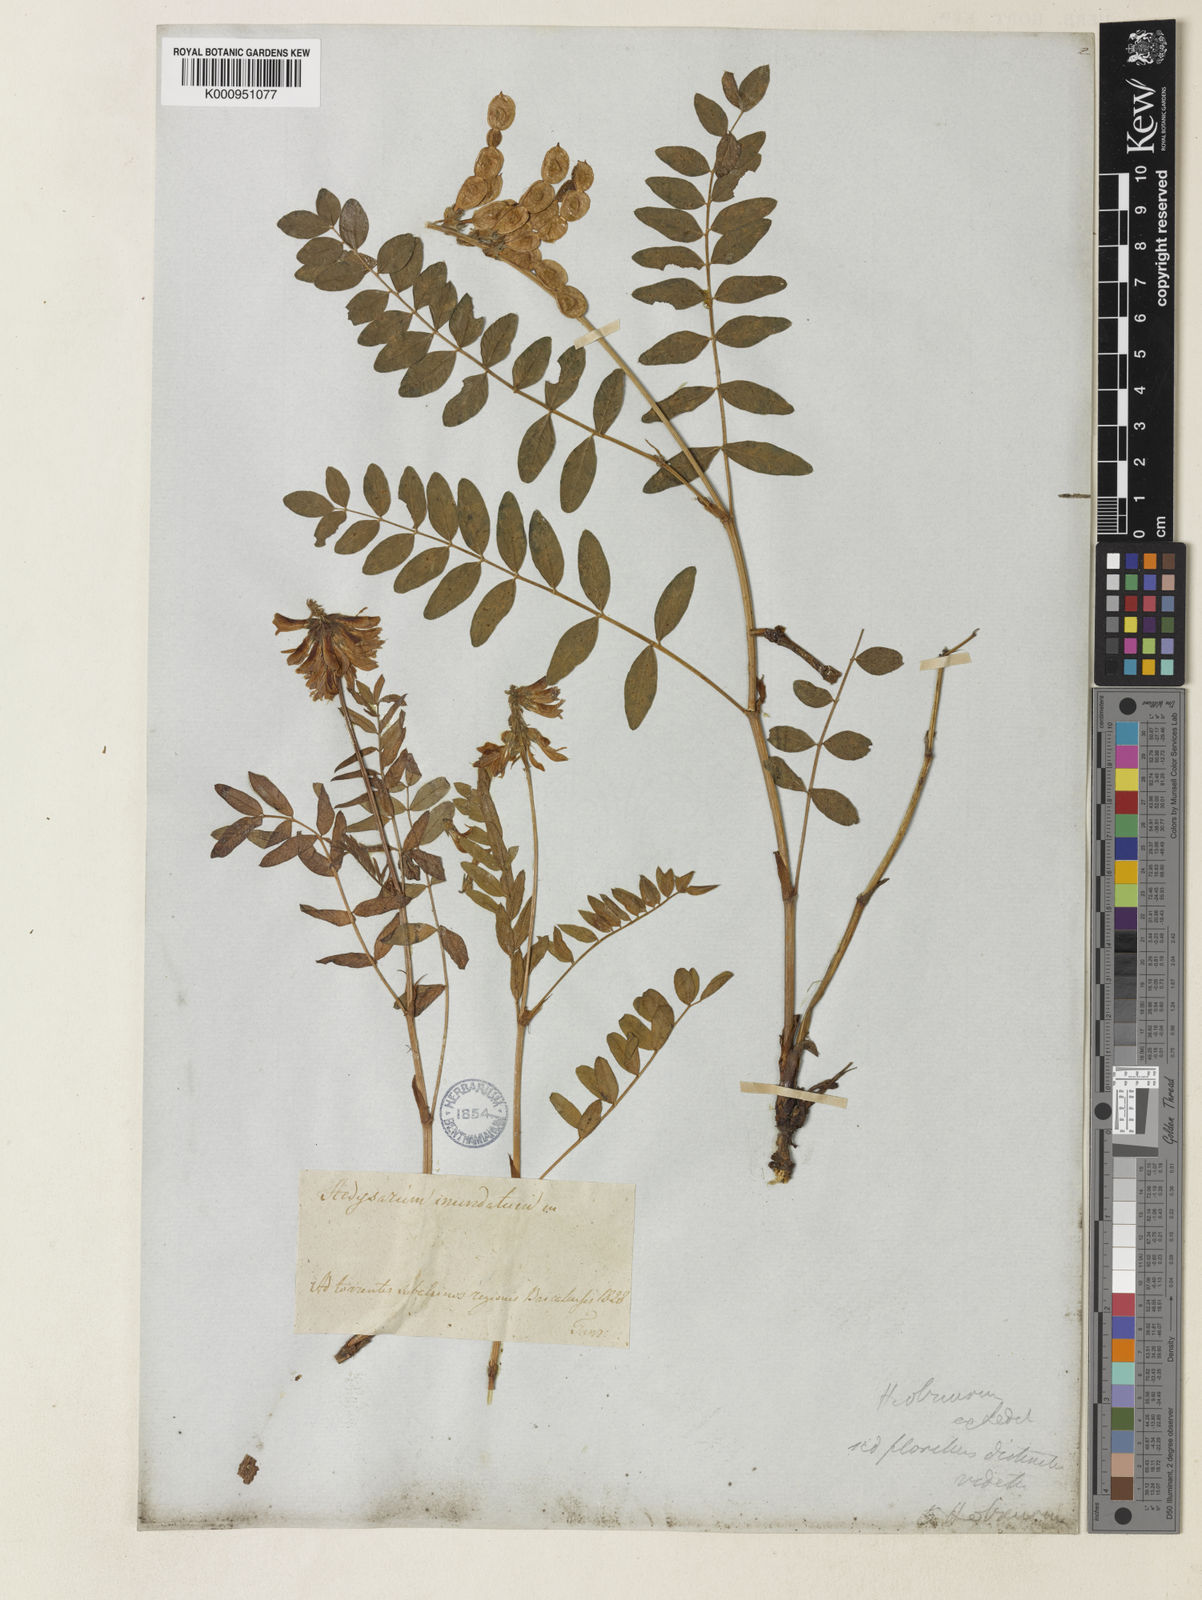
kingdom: Plantae
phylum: Tracheophyta
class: Magnoliopsida
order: Fabales
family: Fabaceae
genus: Hedysarum
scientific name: Hedysarum inundatum
